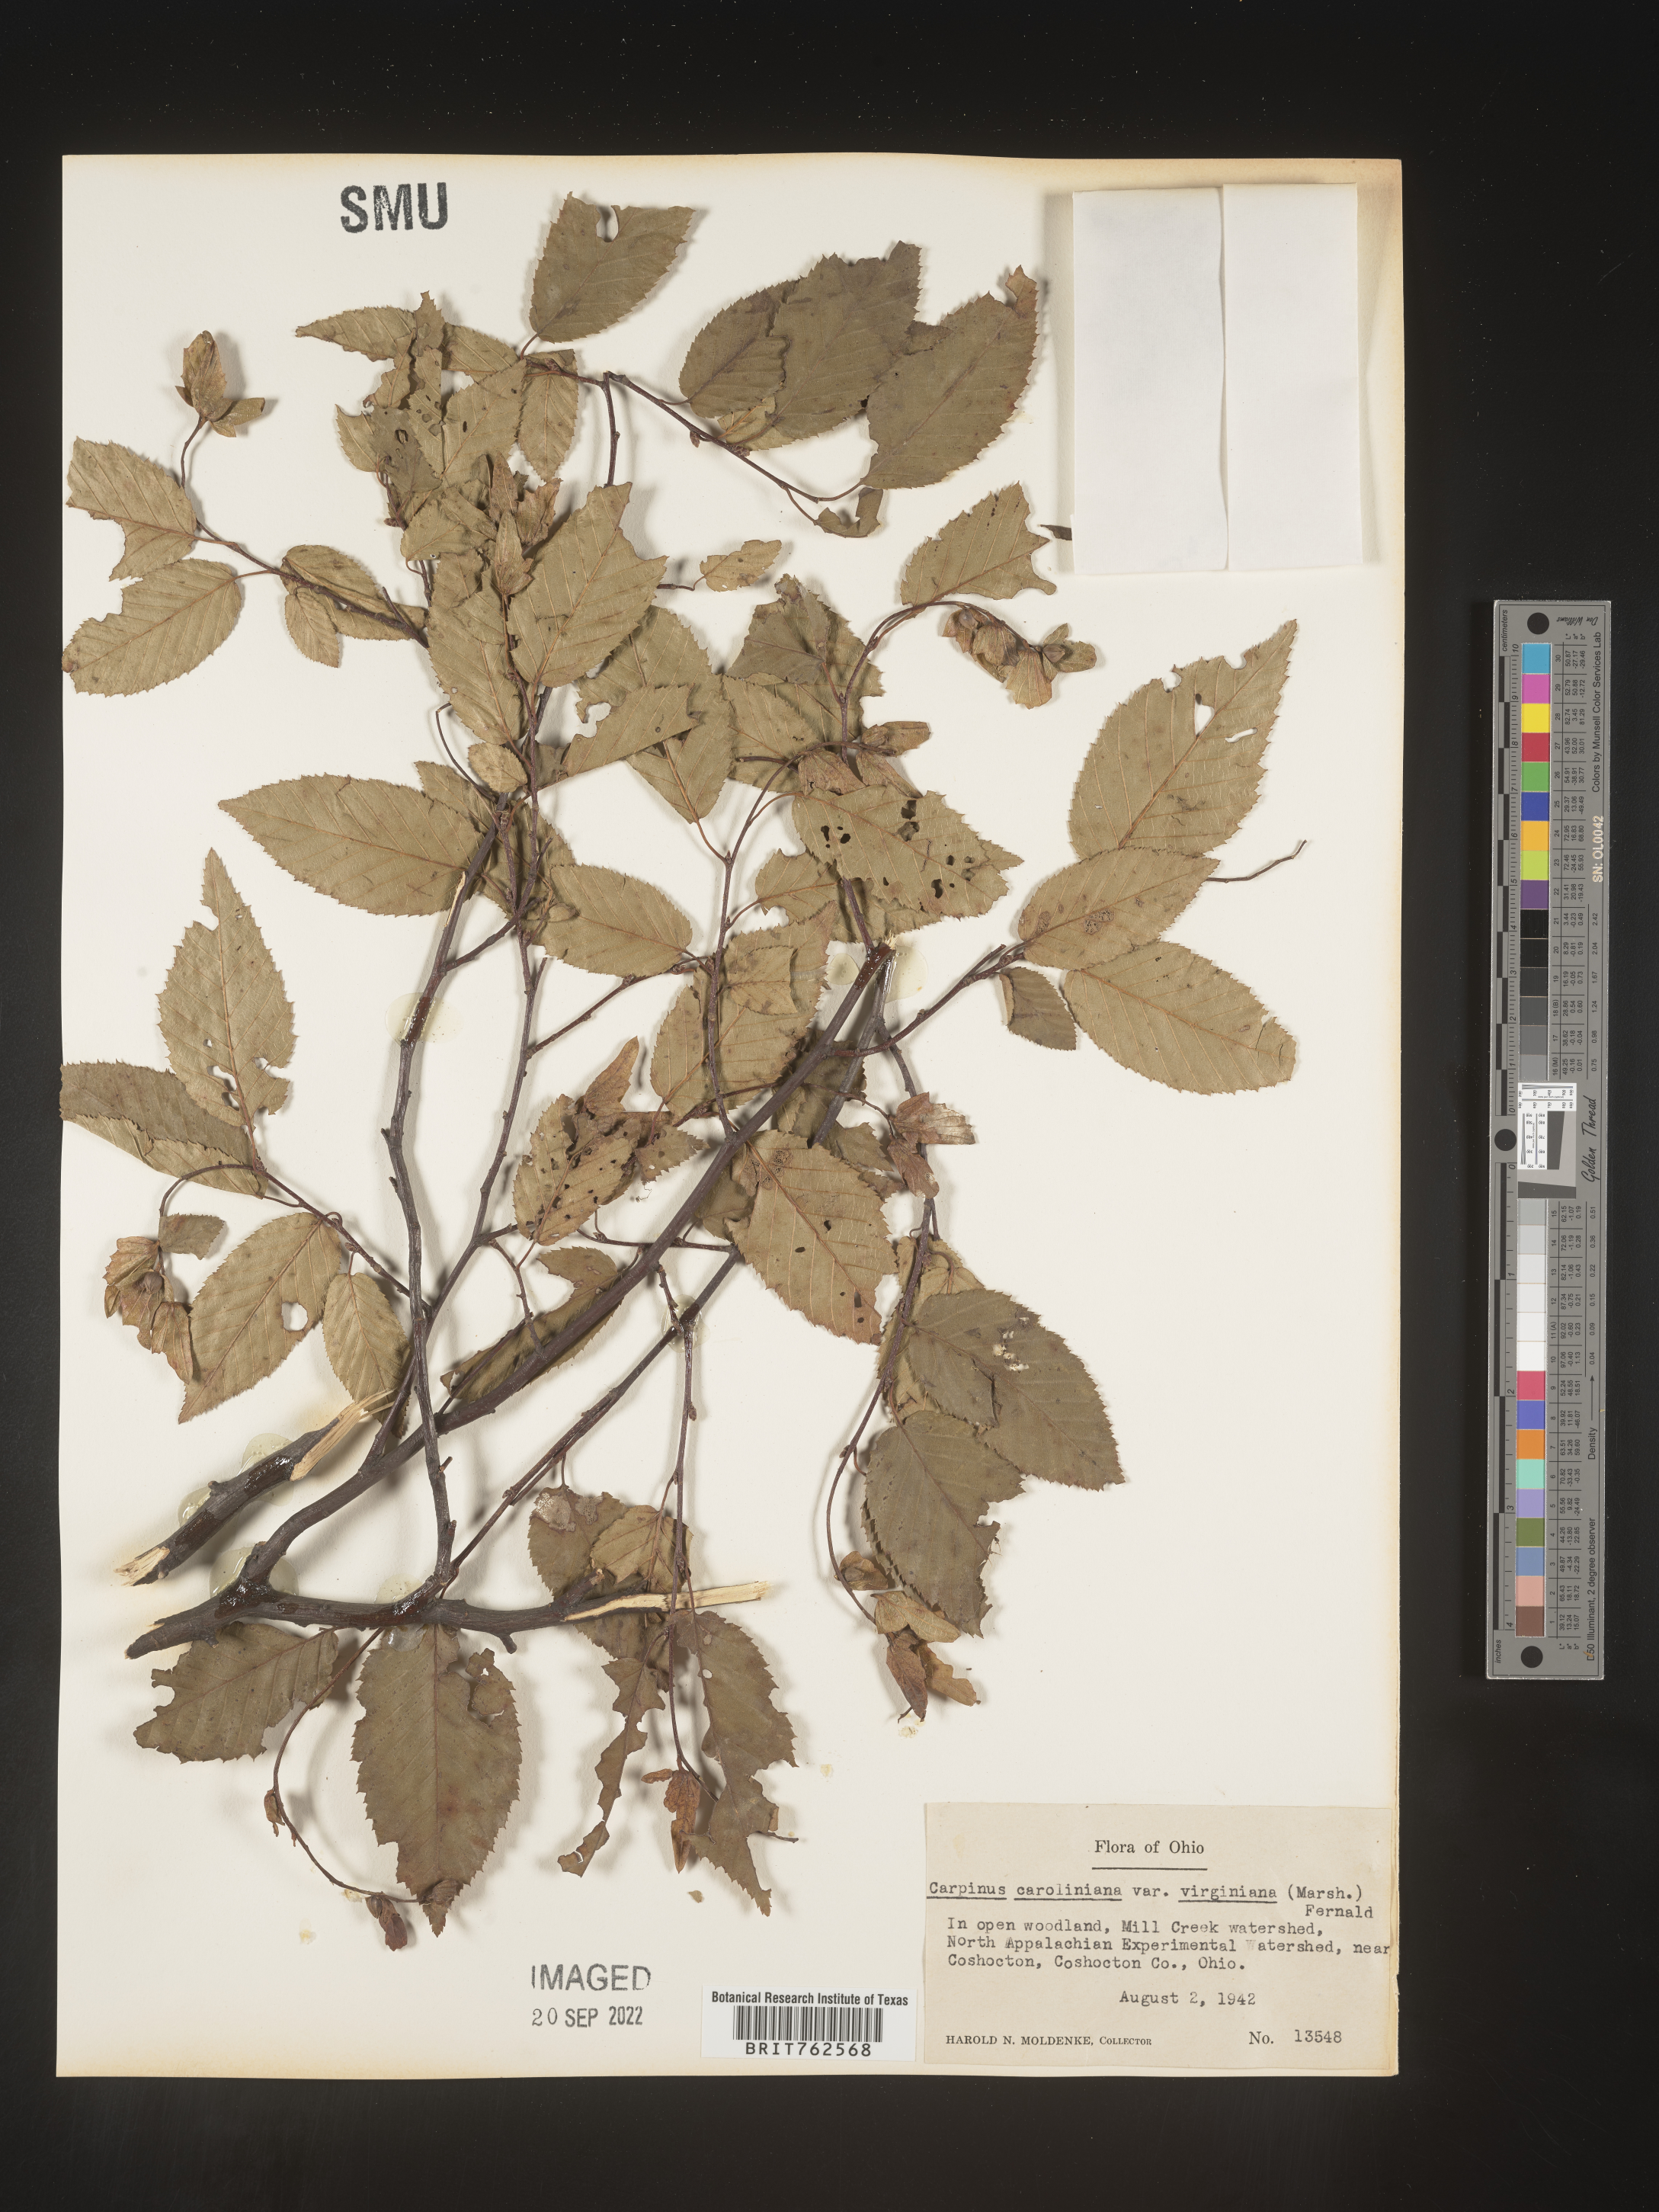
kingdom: Plantae
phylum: Tracheophyta
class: Magnoliopsida
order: Fagales
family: Betulaceae
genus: Carpinus
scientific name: Carpinus caroliniana
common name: American hornbeam
